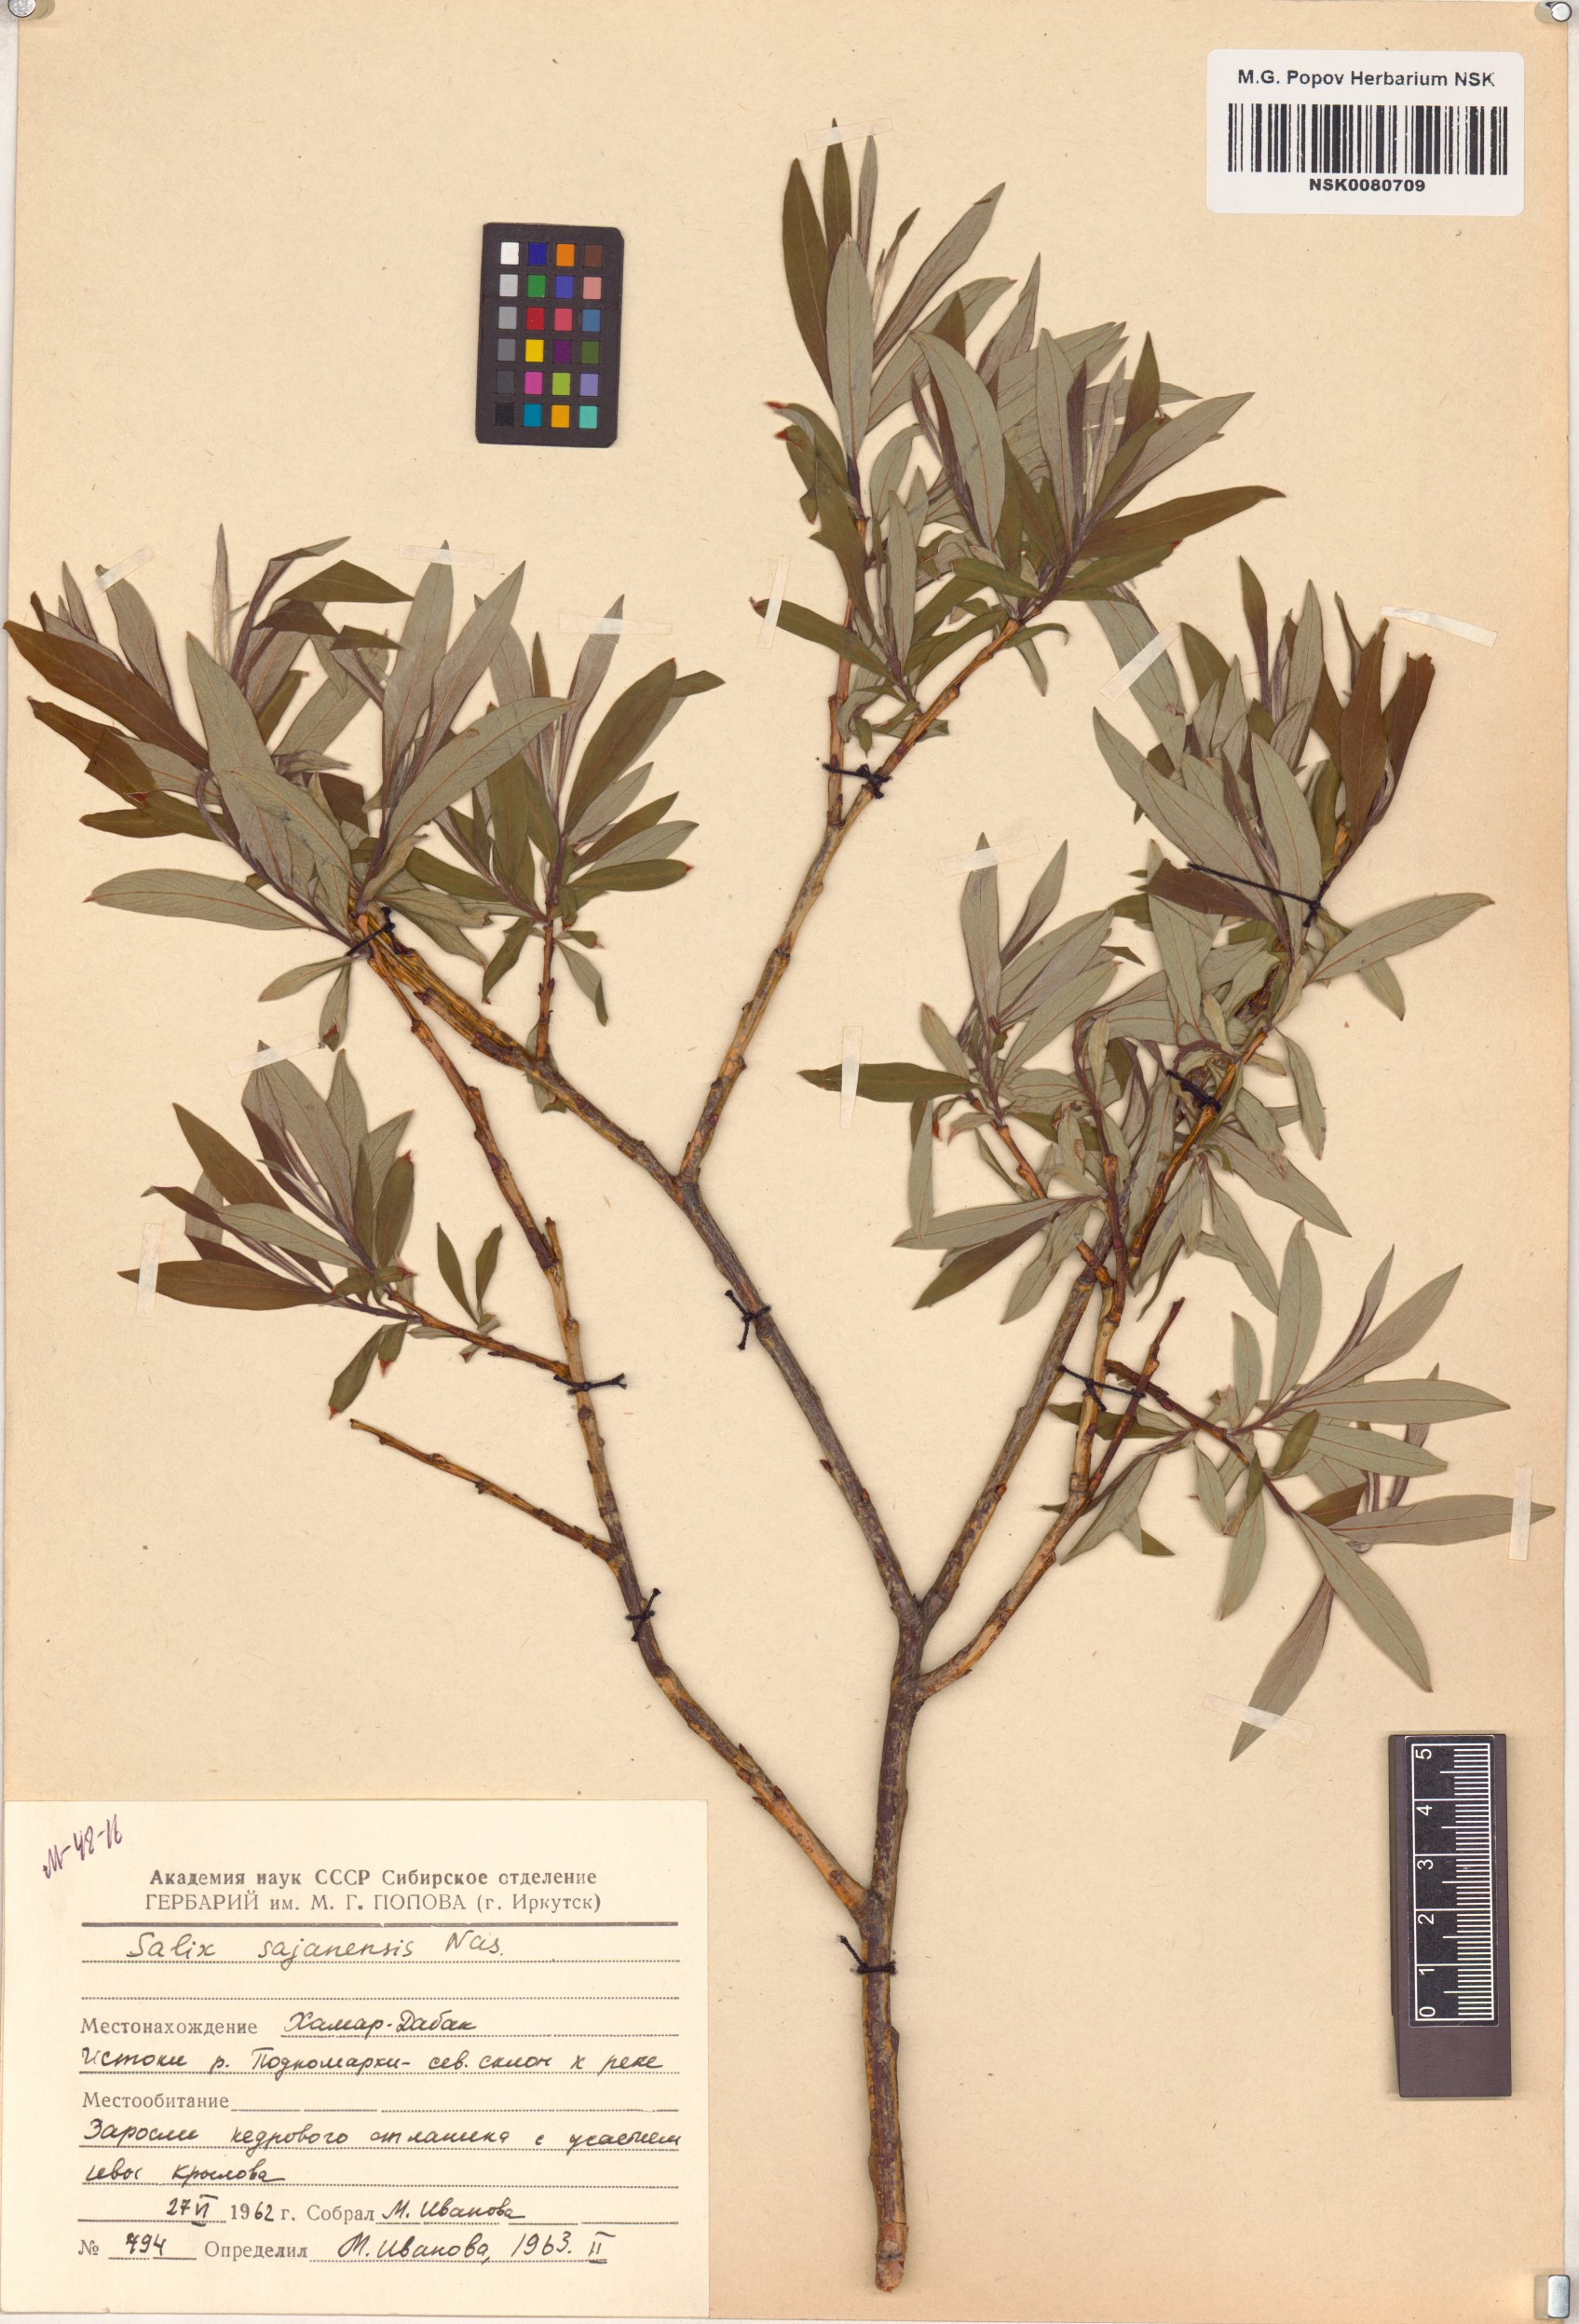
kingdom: Plantae
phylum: Tracheophyta
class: Magnoliopsida
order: Malpighiales
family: Salicaceae
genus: Salix
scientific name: Salix sajanensis
